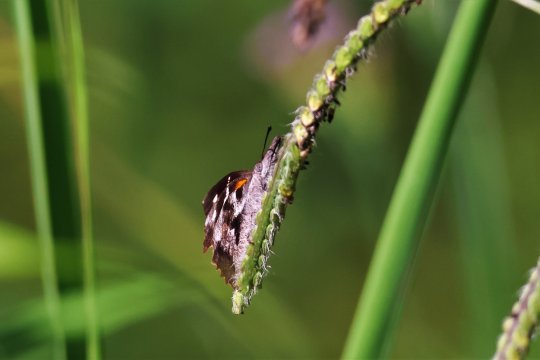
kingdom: Animalia
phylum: Arthropoda
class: Insecta
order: Lepidoptera
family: Nymphalidae
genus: Libytheana
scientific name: Libytheana carinenta
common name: American Snout
